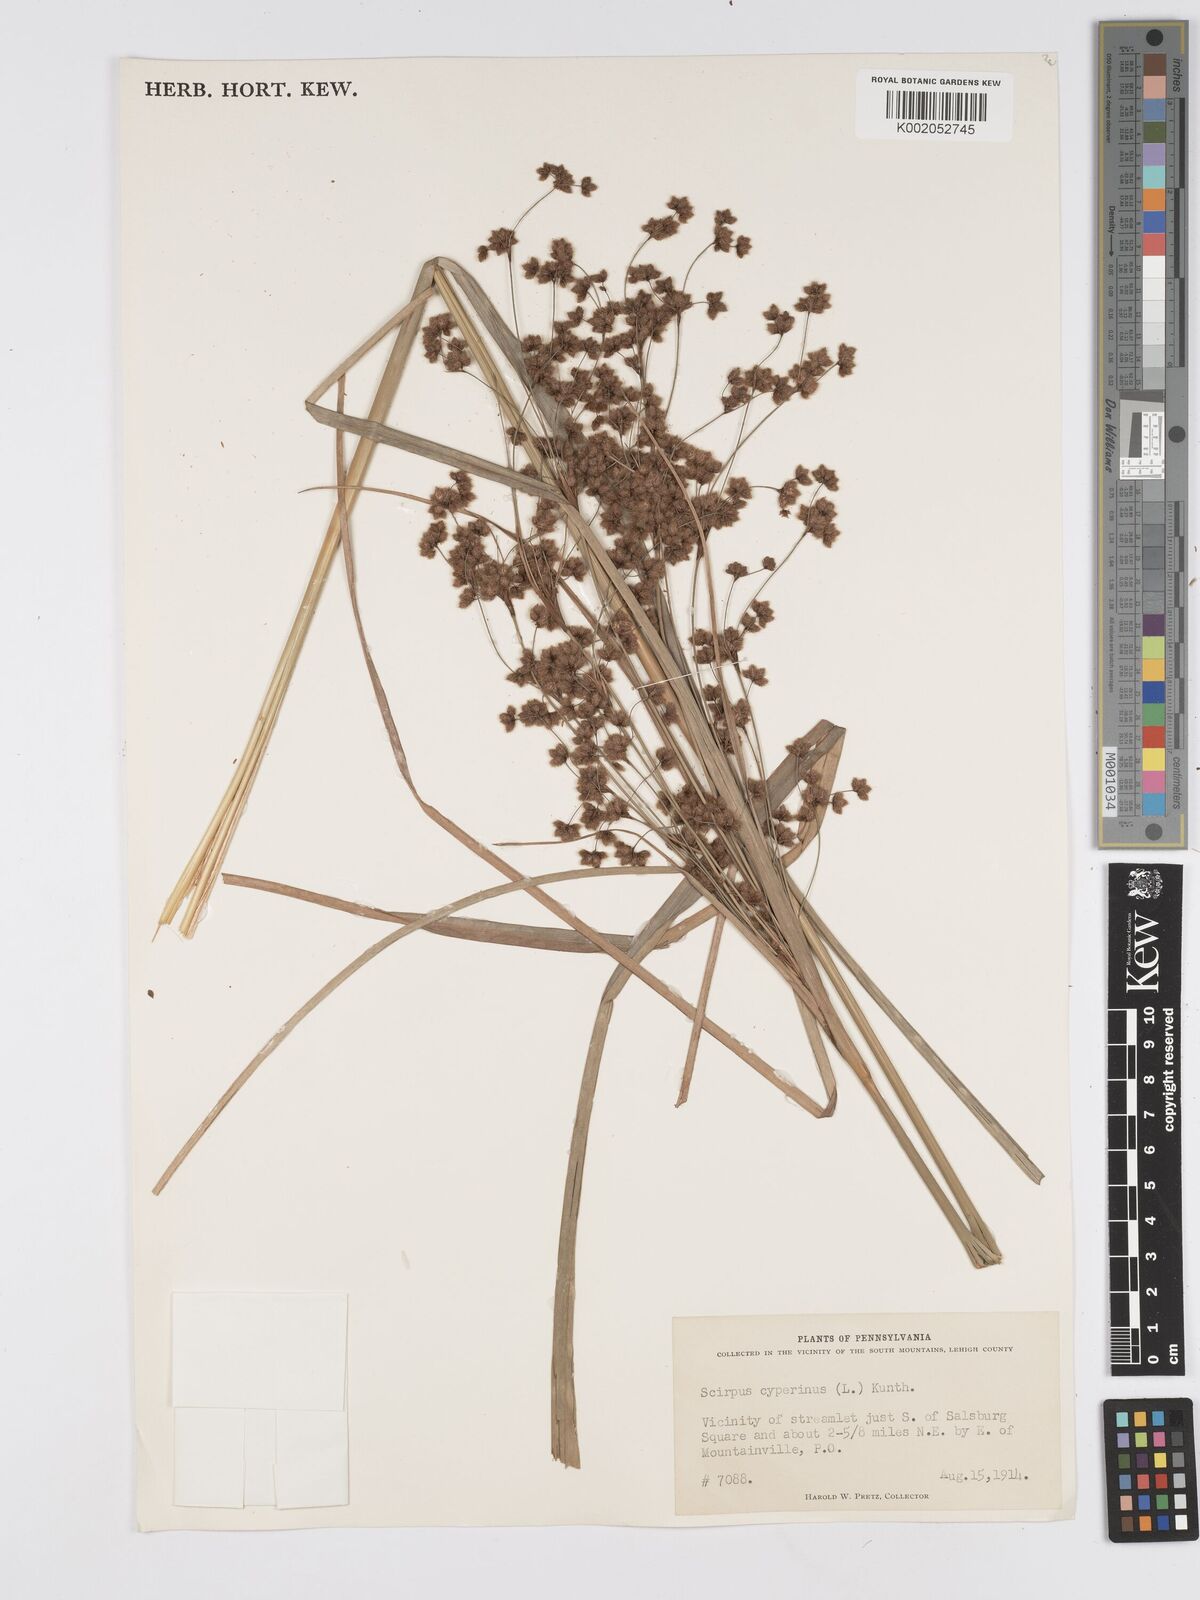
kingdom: Plantae
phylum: Tracheophyta
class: Liliopsida
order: Poales
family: Cyperaceae
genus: Scirpus
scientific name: Scirpus cyperinus
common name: Black-sheathed bulrush
